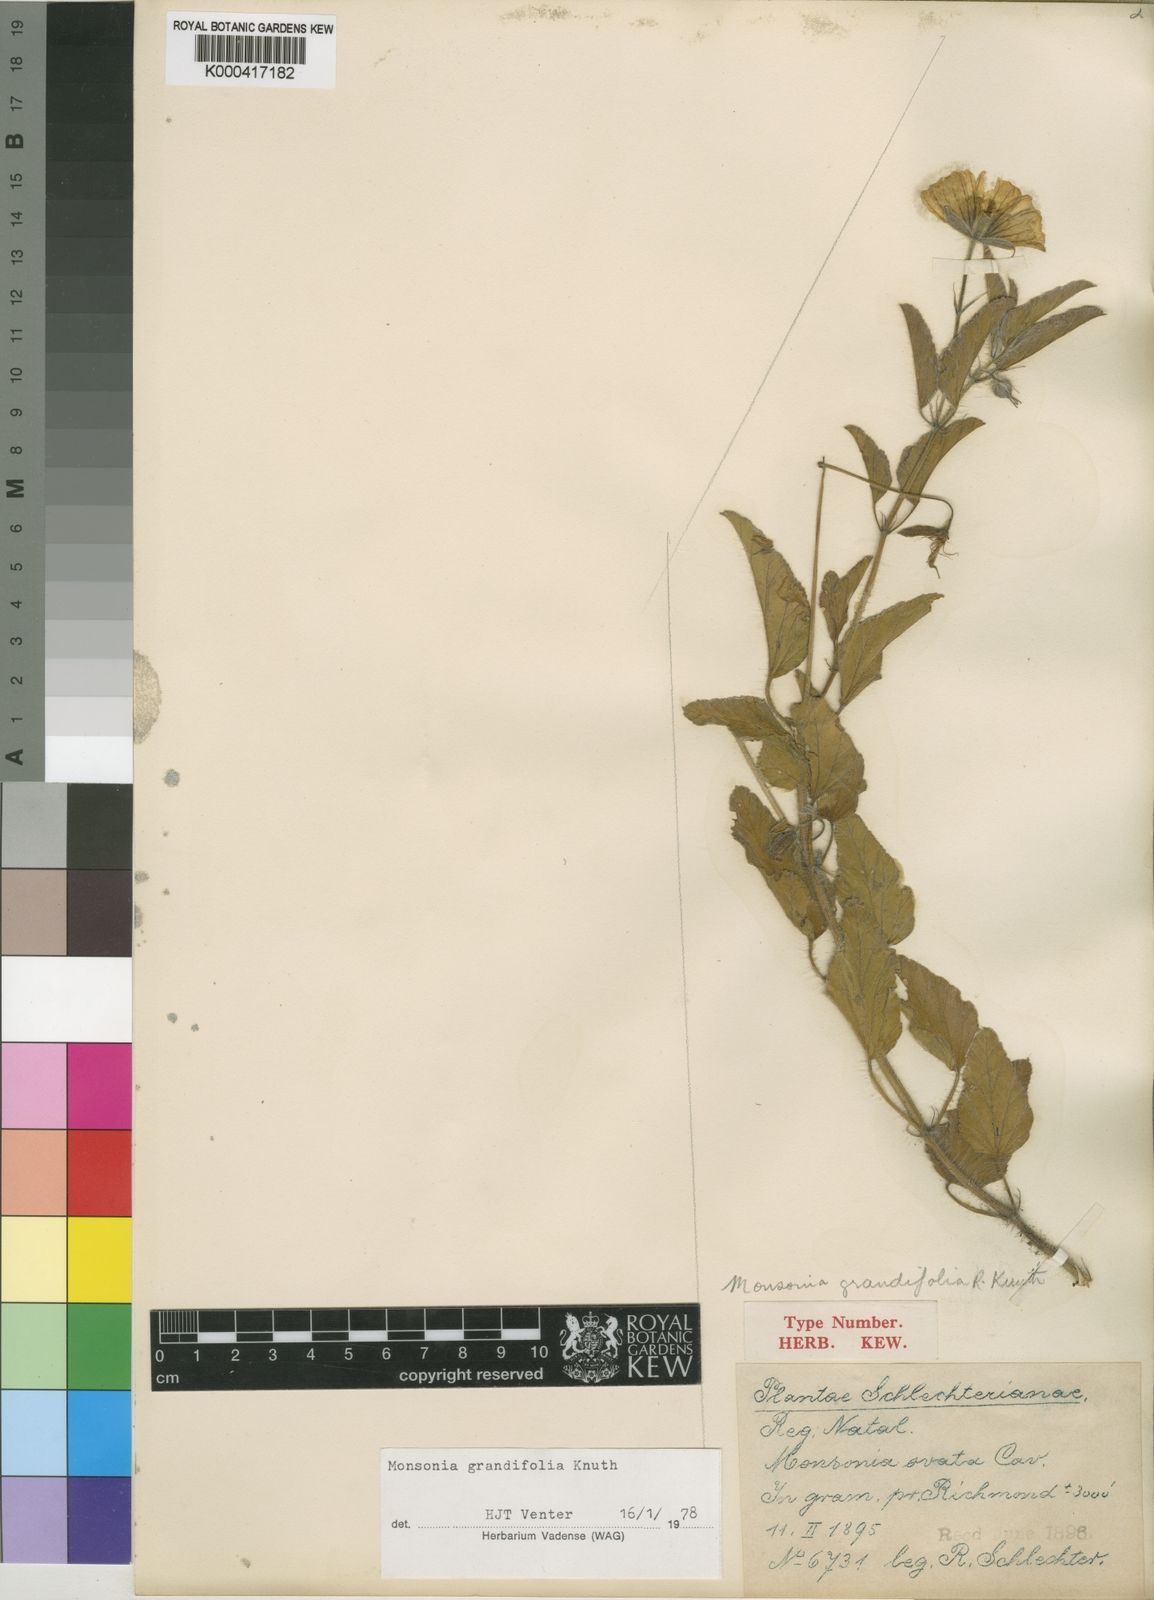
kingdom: Plantae
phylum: Tracheophyta
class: Magnoliopsida
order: Geraniales
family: Geraniaceae
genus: Monsonia
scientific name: Monsonia
